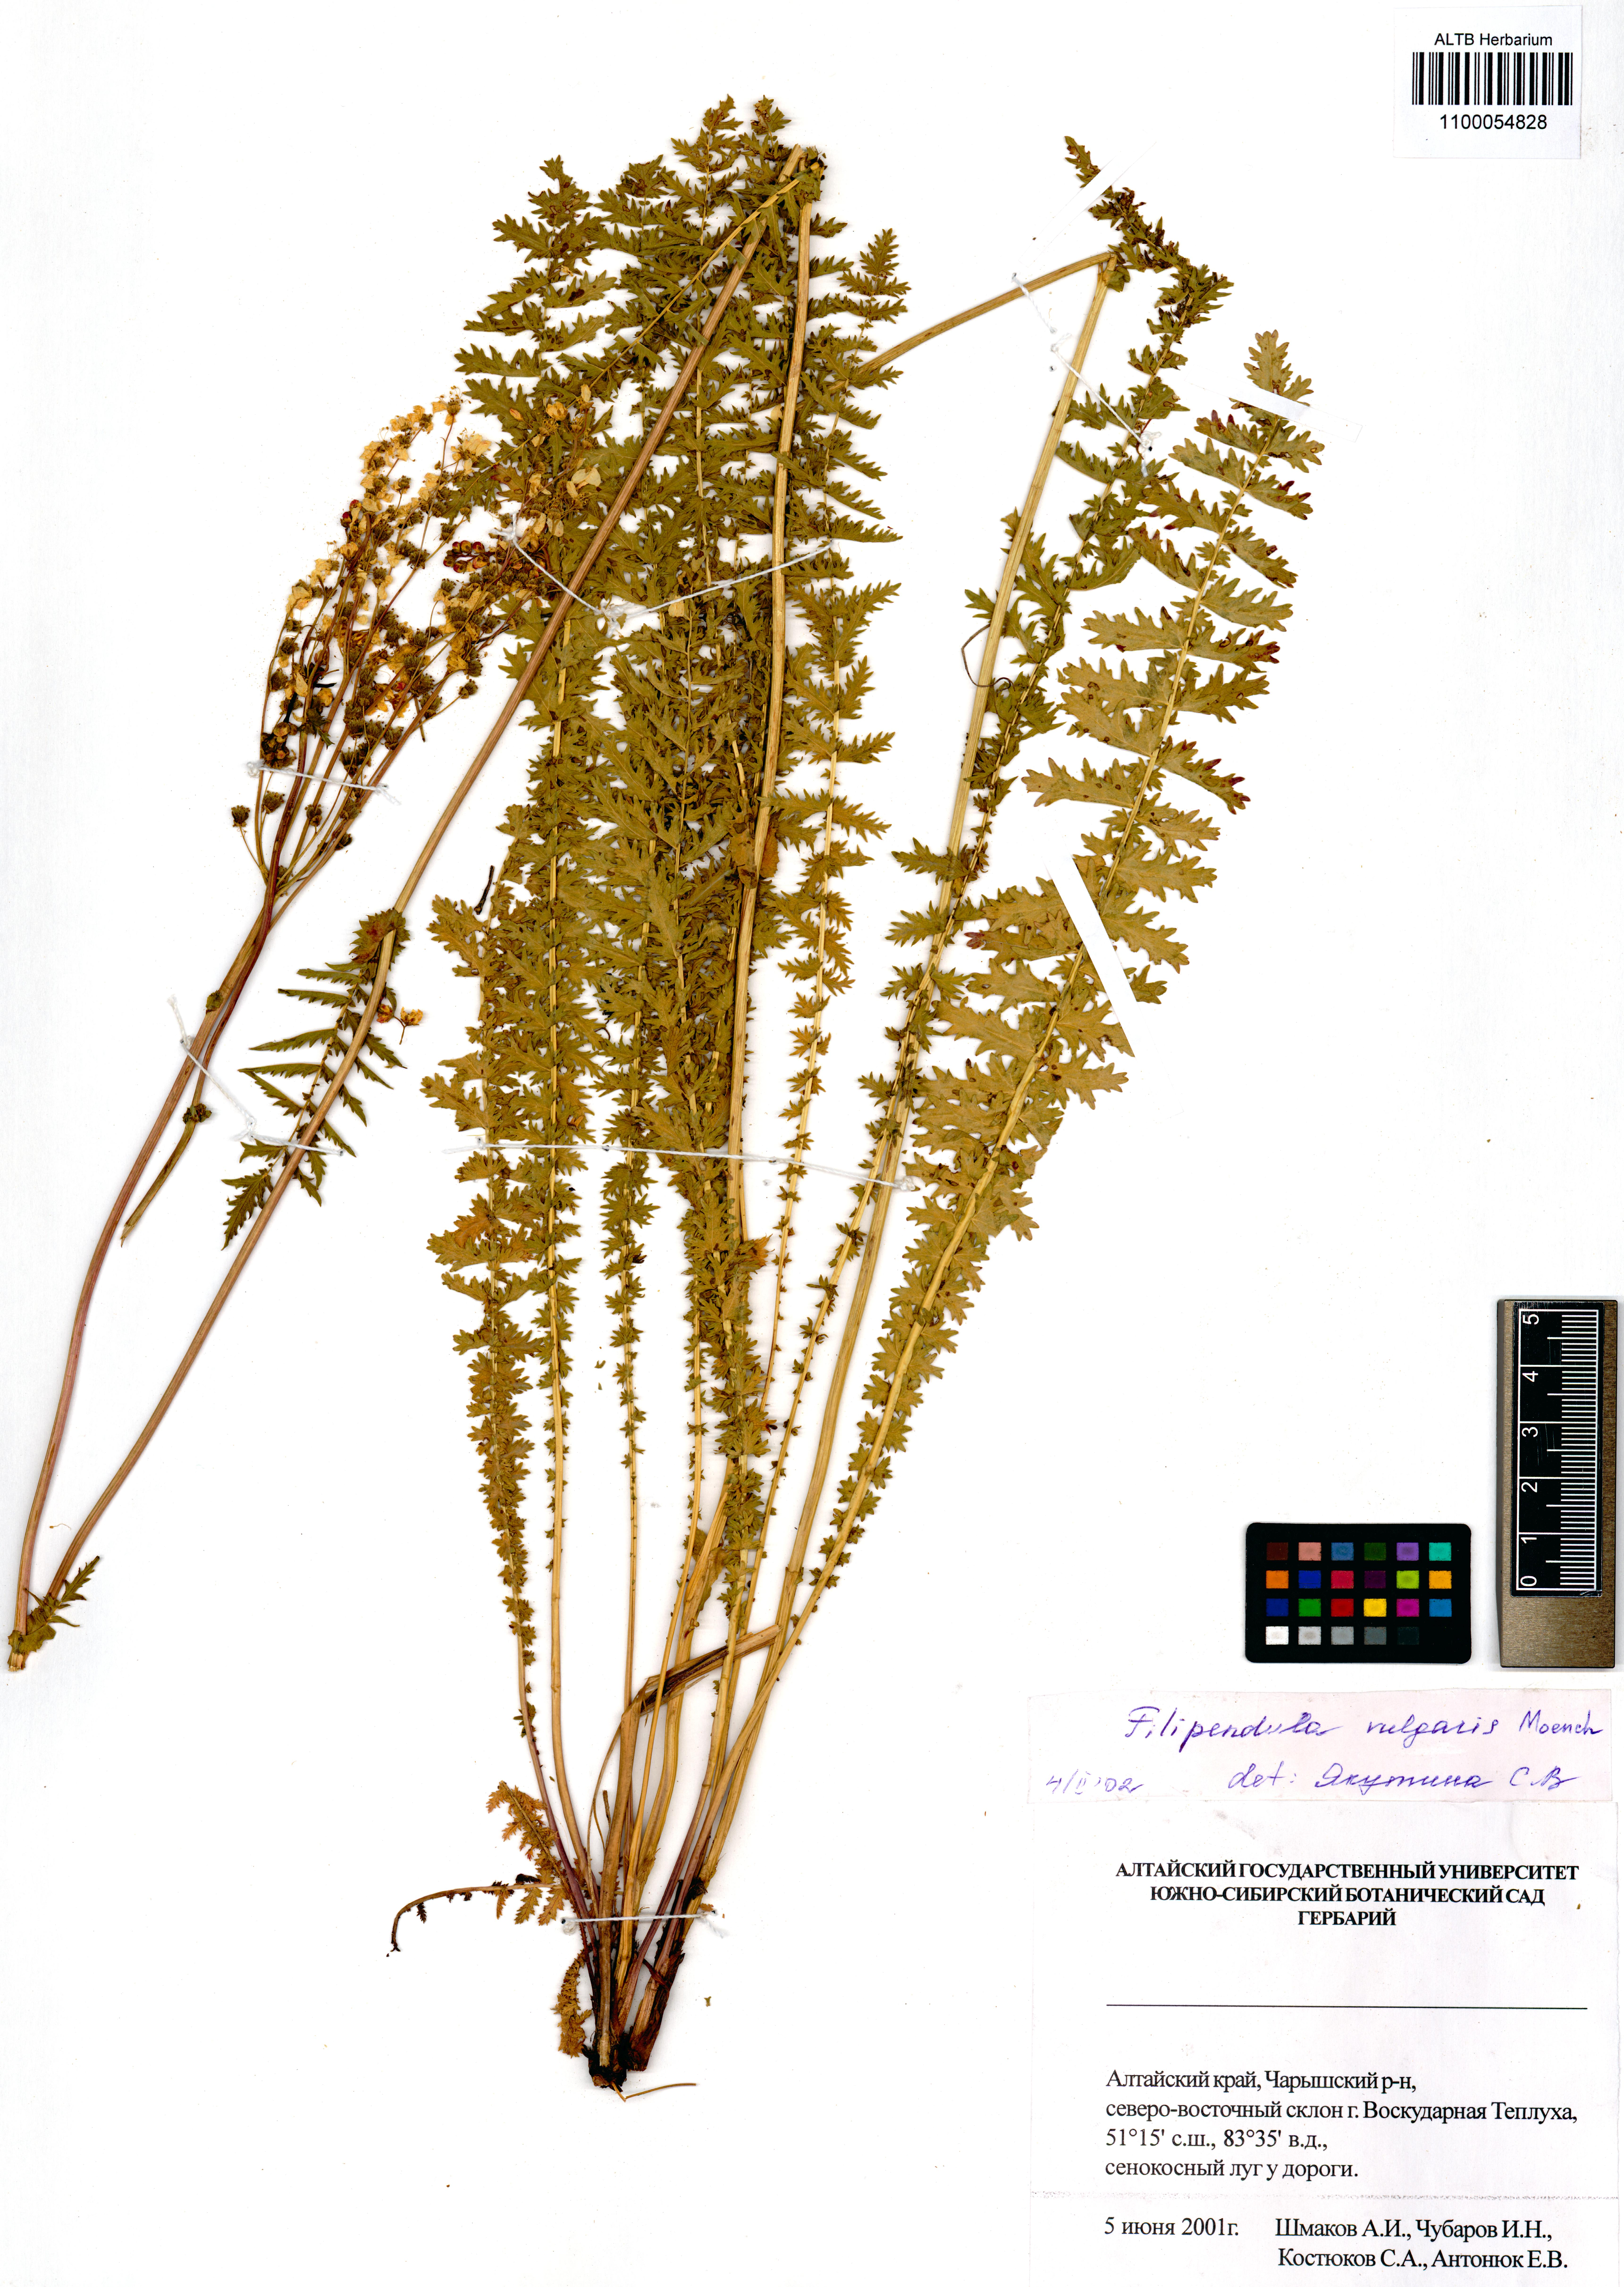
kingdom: Plantae
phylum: Tracheophyta
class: Magnoliopsida
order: Rosales
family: Rosaceae
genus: Filipendula
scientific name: Filipendula vulgaris
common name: Dropwort
